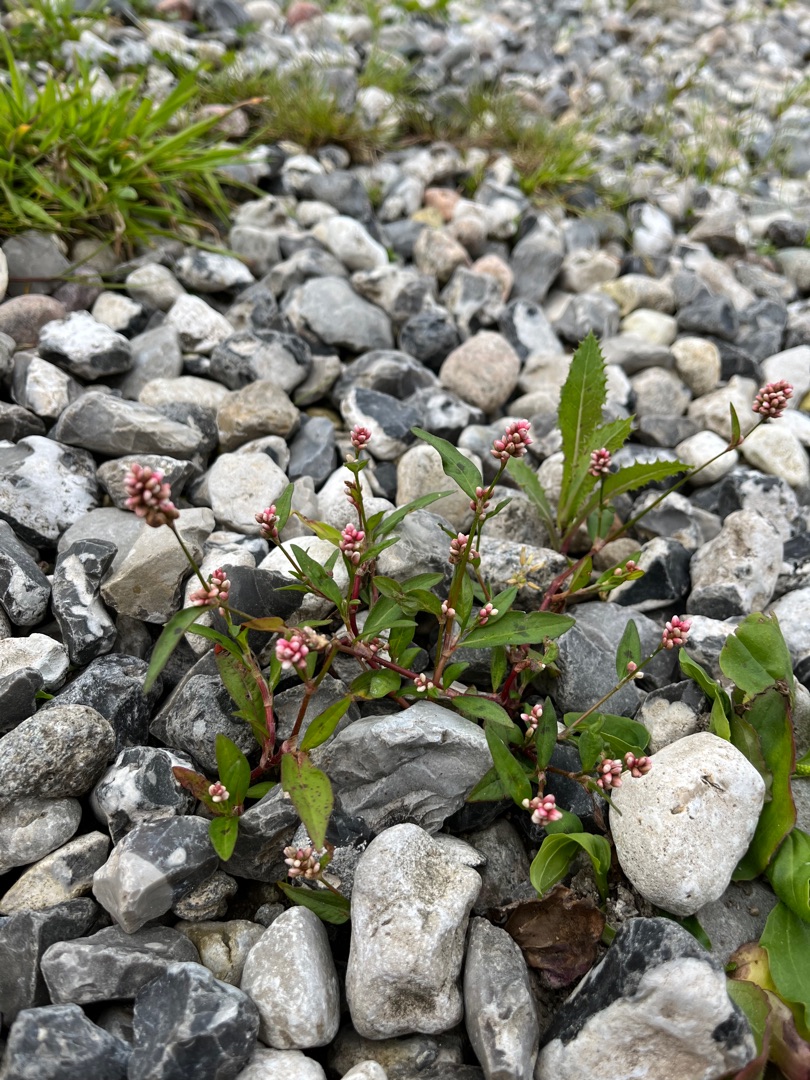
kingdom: Plantae
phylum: Tracheophyta
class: Magnoliopsida
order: Caryophyllales
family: Polygonaceae
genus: Persicaria
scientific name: Persicaria maculosa
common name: Fersken-pileurt
